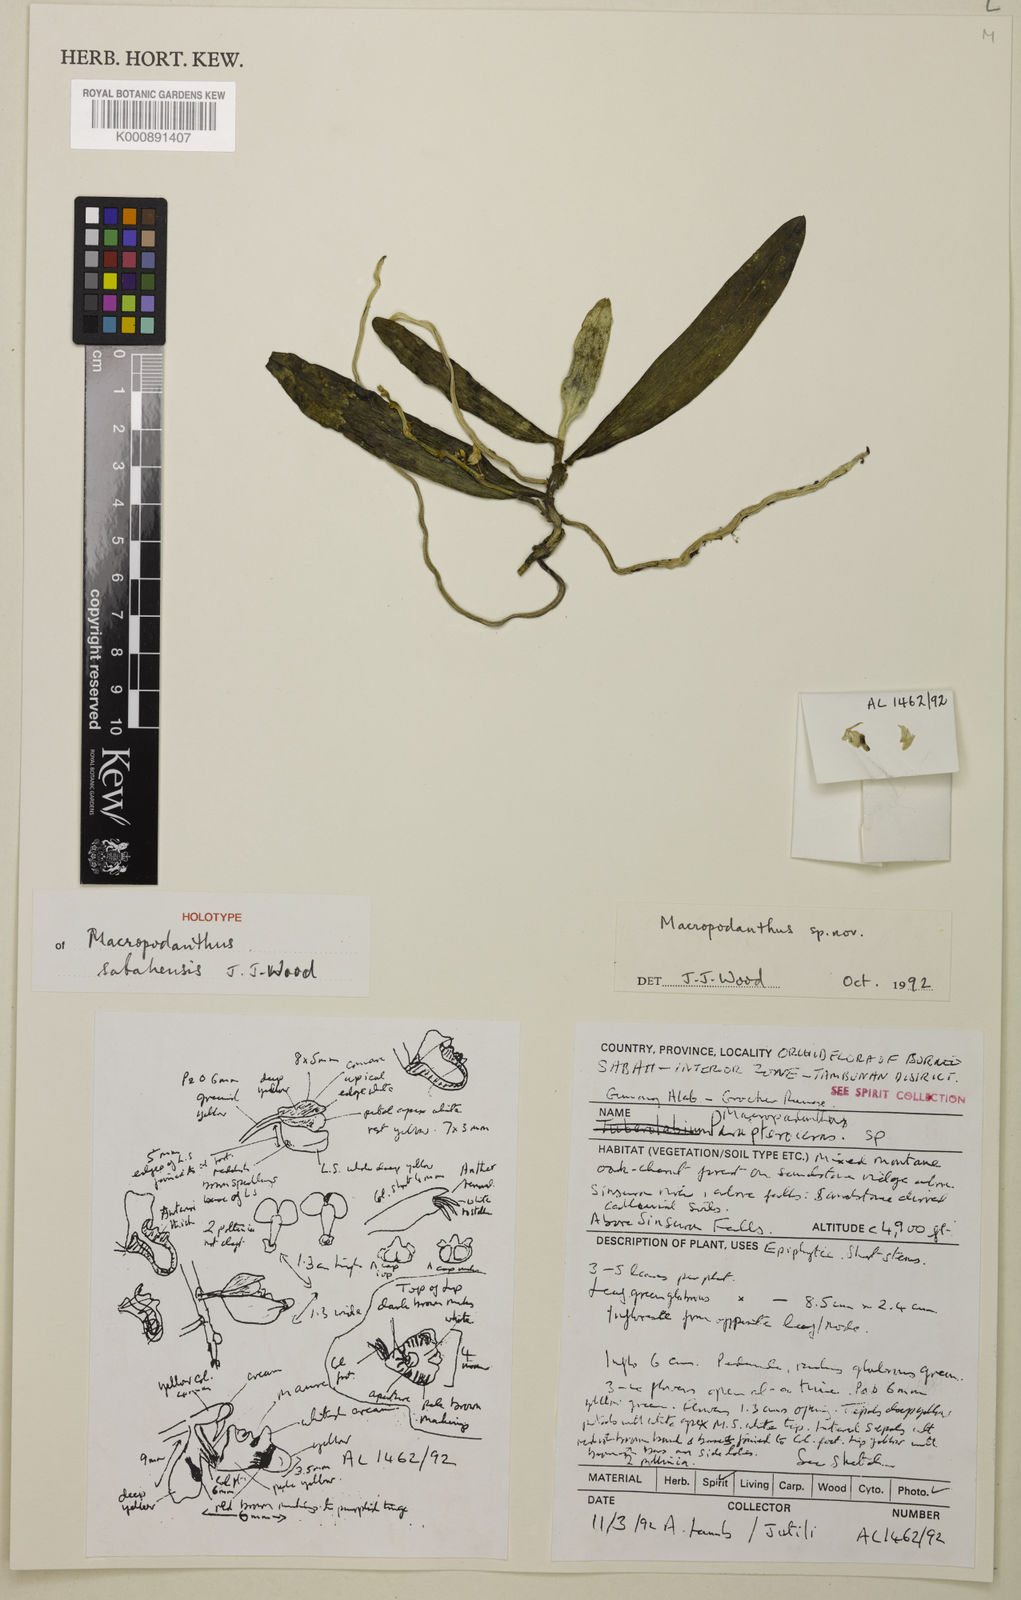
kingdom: Plantae
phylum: Tracheophyta
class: Liliopsida
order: Asparagales
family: Orchidaceae
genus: Macropodanthus
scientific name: Macropodanthus sabahensis
